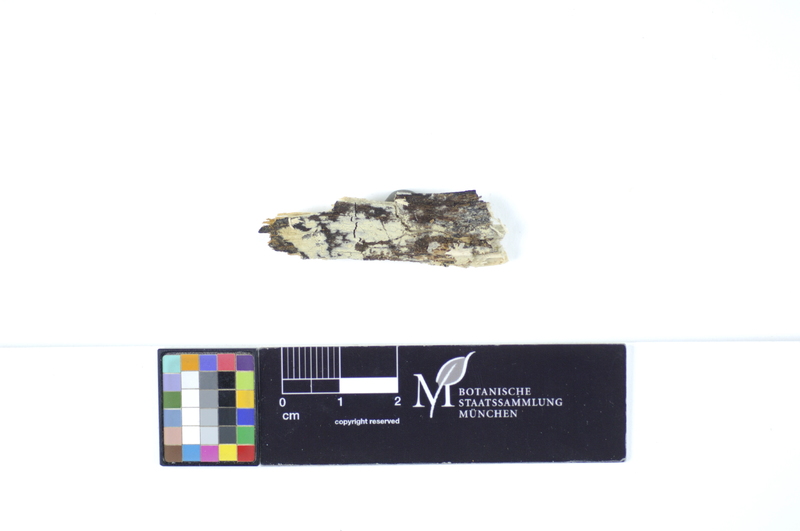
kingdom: Plantae
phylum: Tracheophyta
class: Magnoliopsida
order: Fagales
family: Fagaceae
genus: Quercus
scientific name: Quercus
